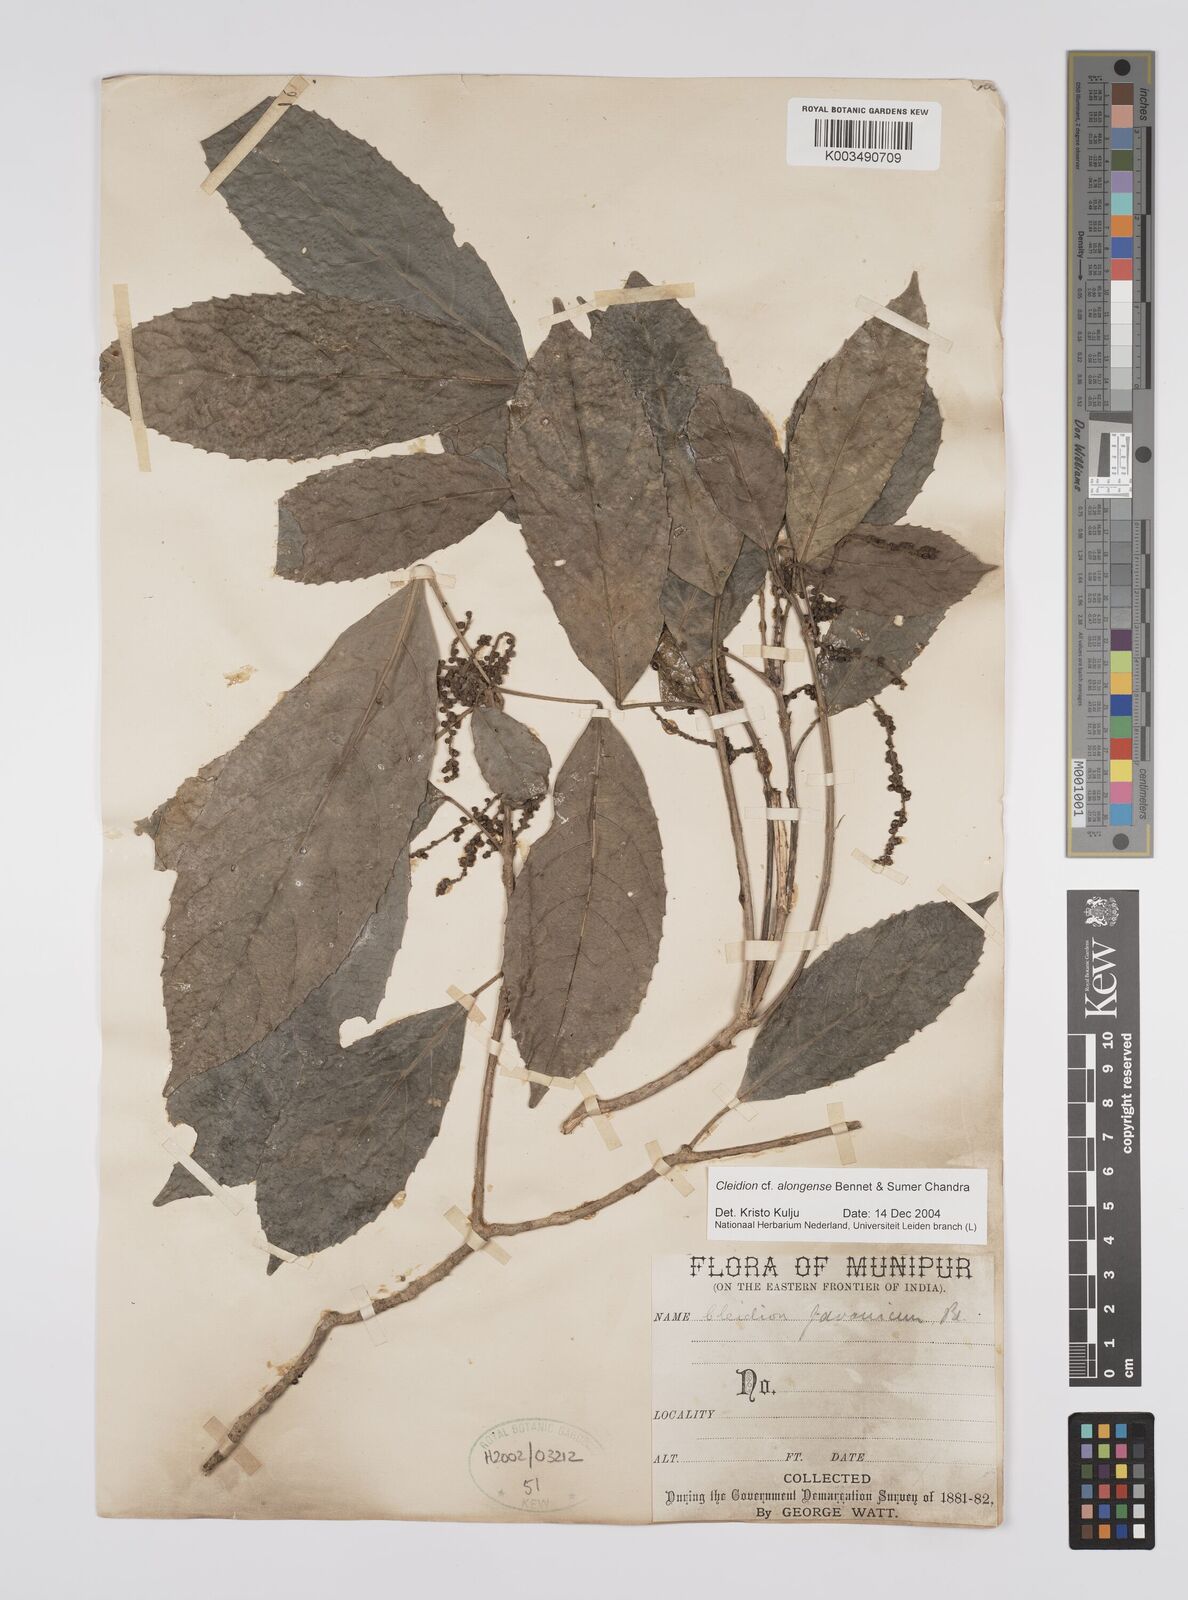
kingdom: Plantae
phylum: Tracheophyta
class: Magnoliopsida
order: Malpighiales
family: Euphorbiaceae
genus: Cleidion
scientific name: Cleidion javanicum
